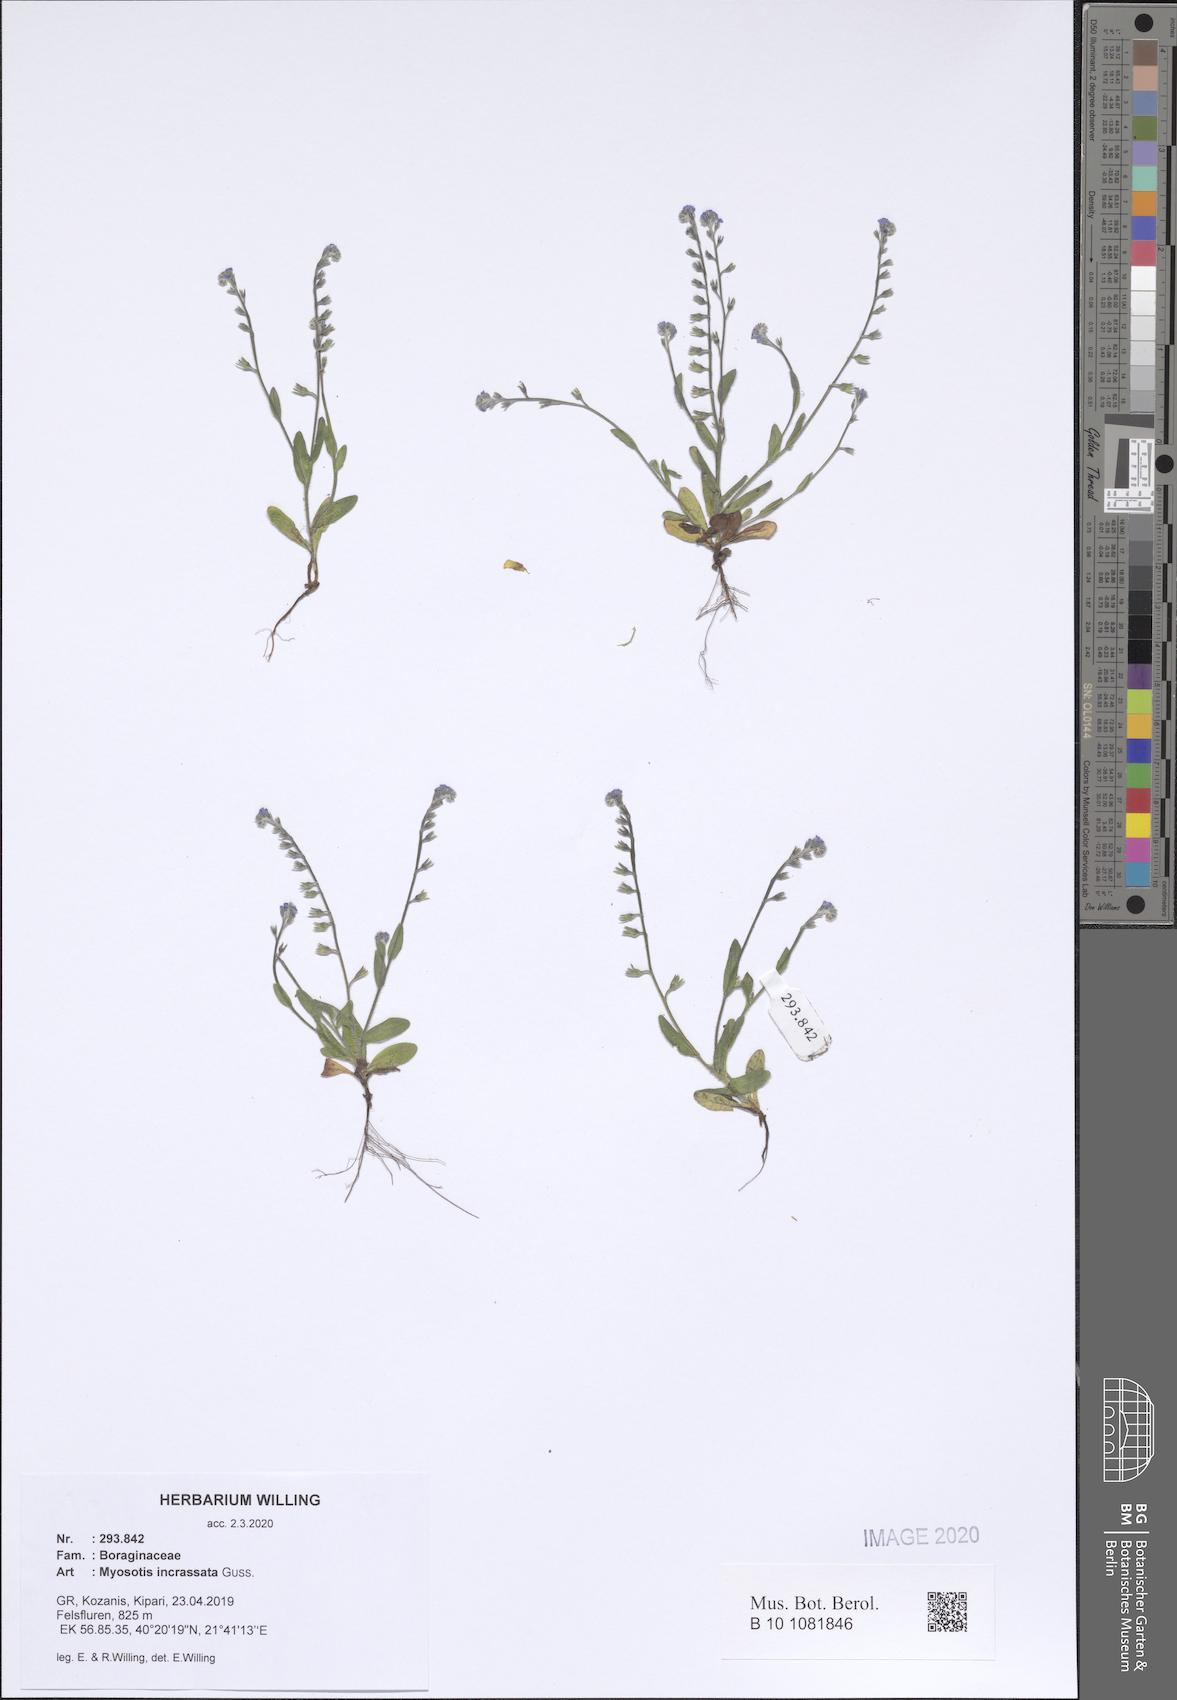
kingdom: Plantae
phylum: Tracheophyta
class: Magnoliopsida
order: Boraginales
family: Boraginaceae
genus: Myosotis
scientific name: Myosotis incrassata
